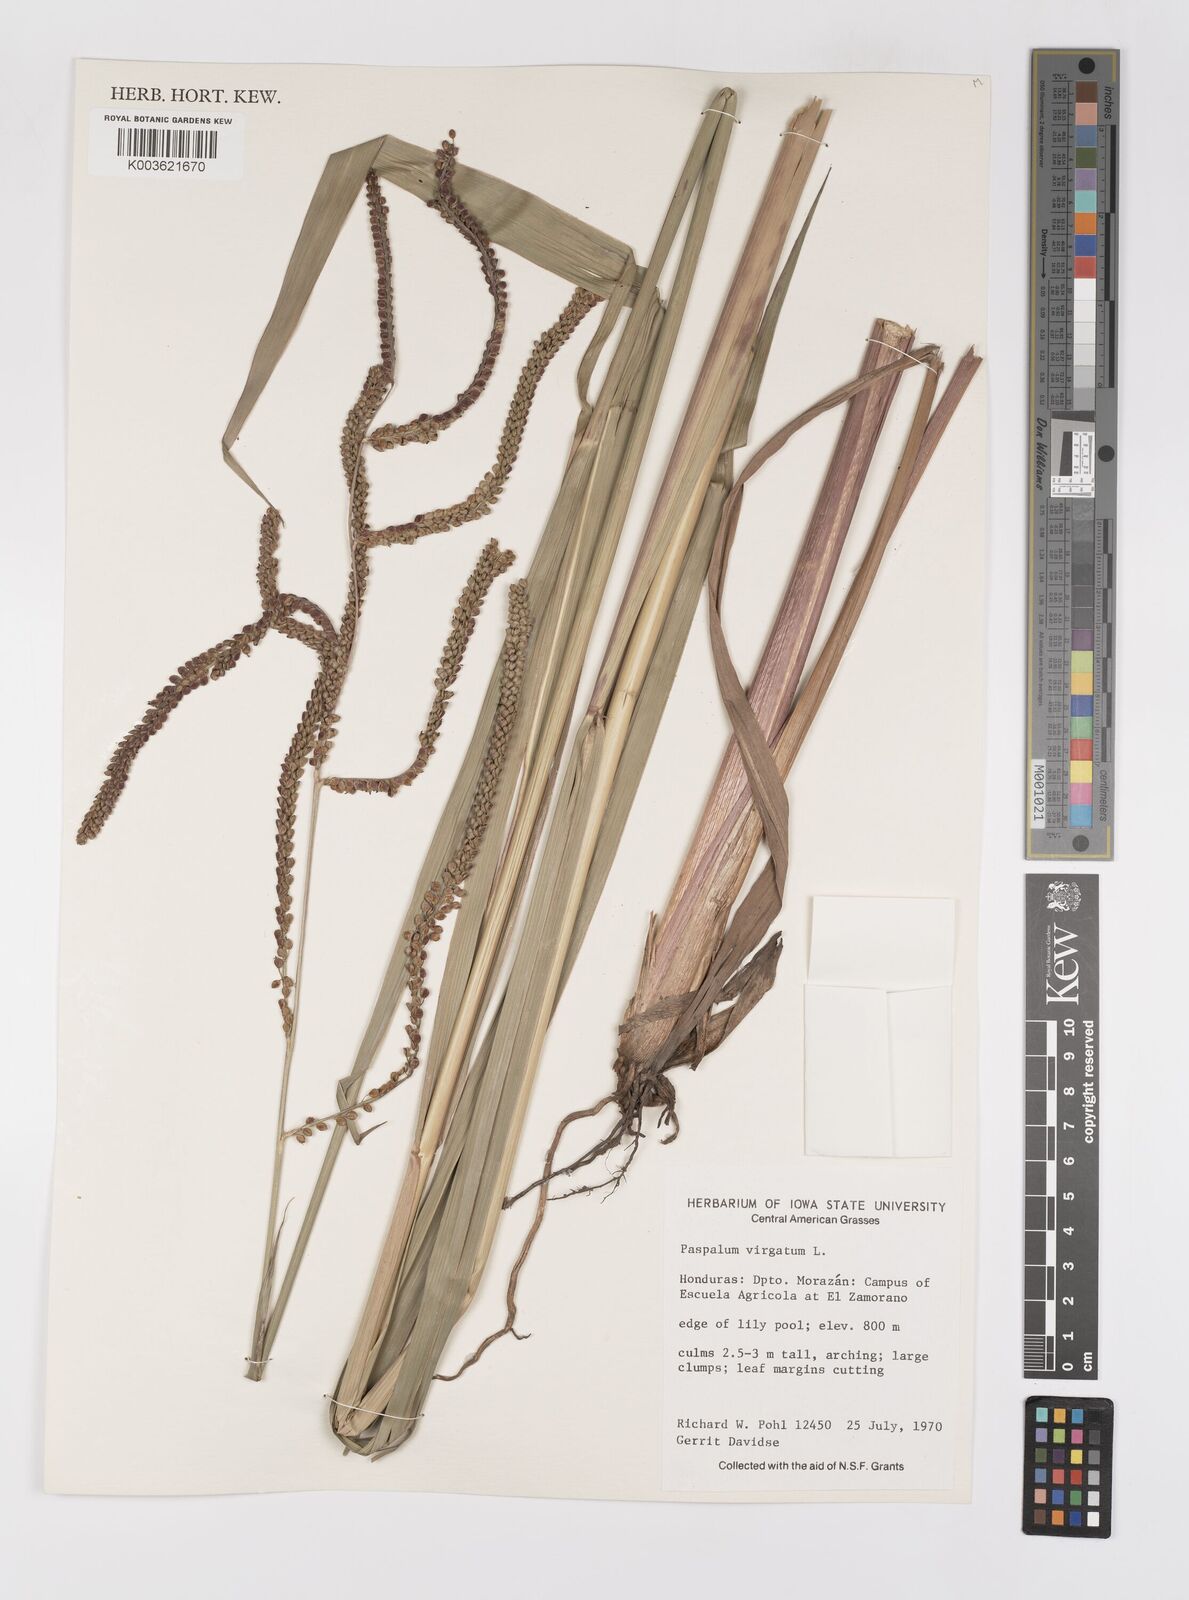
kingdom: Plantae
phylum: Tracheophyta
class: Liliopsida
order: Poales
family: Poaceae
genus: Paspalum
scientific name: Paspalum virgatum
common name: Talquezal
